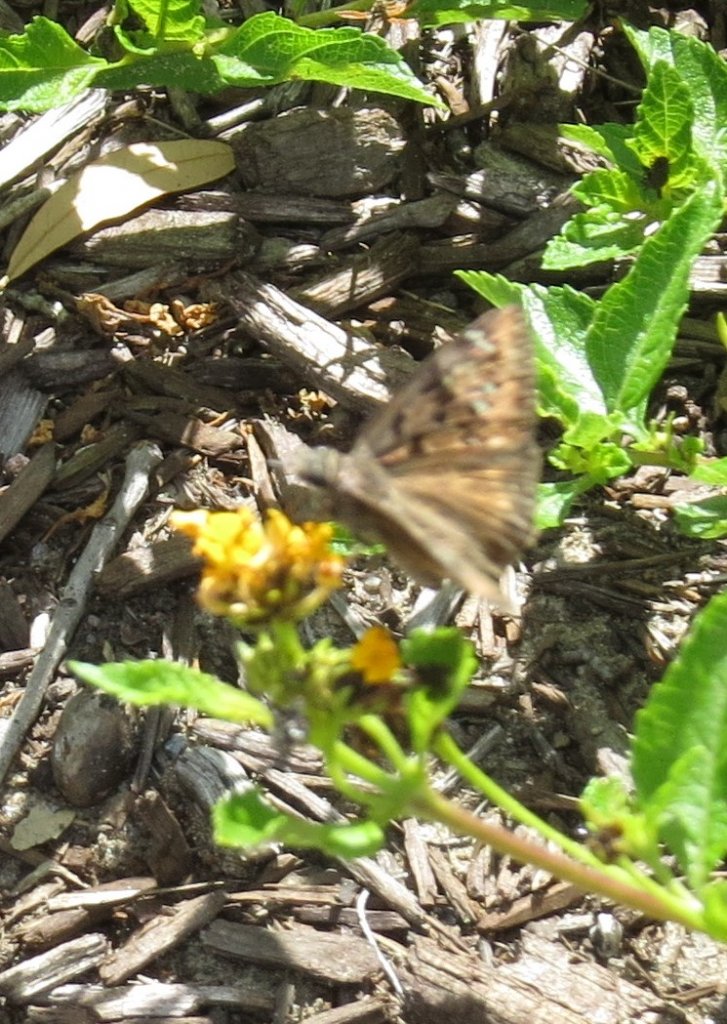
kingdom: Animalia
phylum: Arthropoda
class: Insecta
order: Lepidoptera
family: Hesperiidae
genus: Gesta
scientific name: Gesta
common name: Horace's Duskywing
